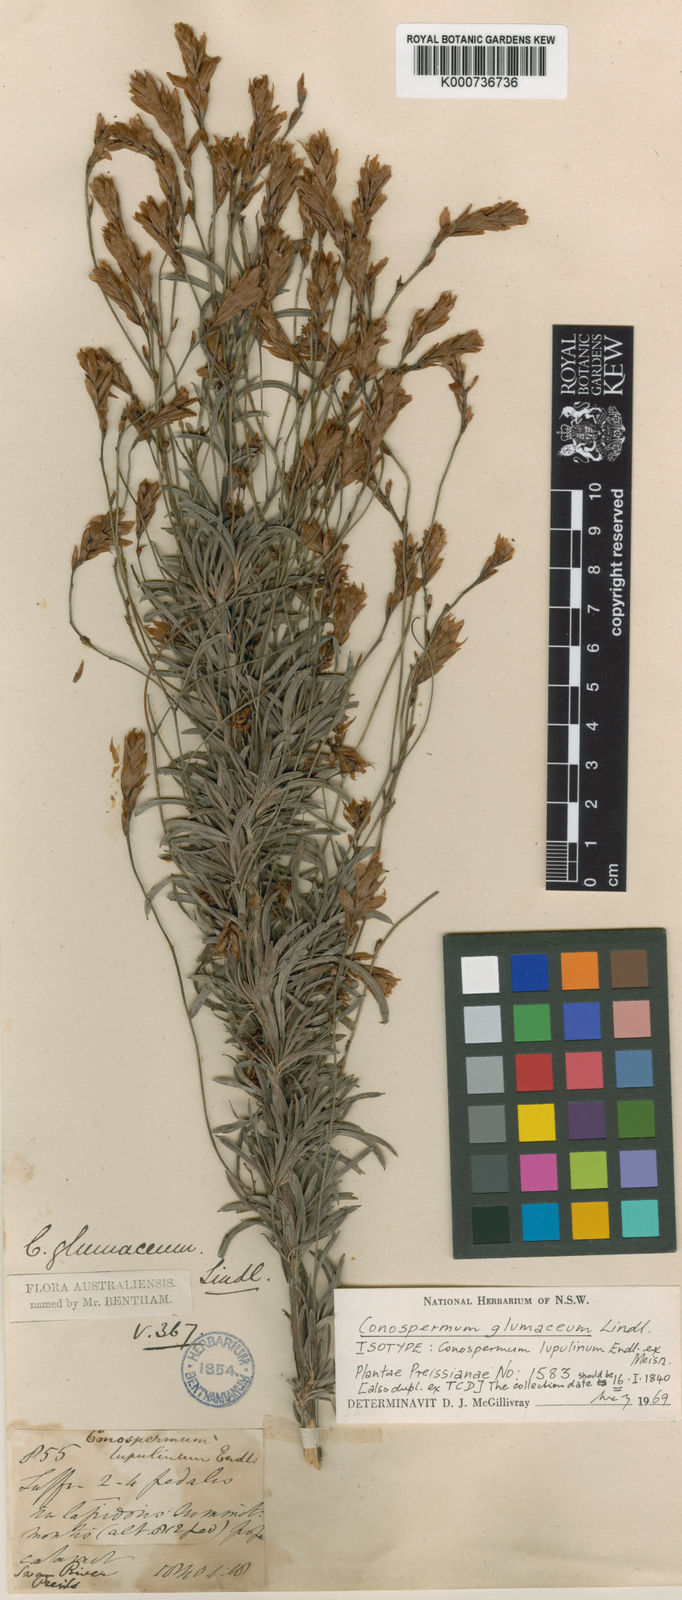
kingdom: Plantae
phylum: Tracheophyta
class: Magnoliopsida
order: Proteales
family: Proteaceae
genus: Conospermum
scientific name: Conospermum glumaceum
